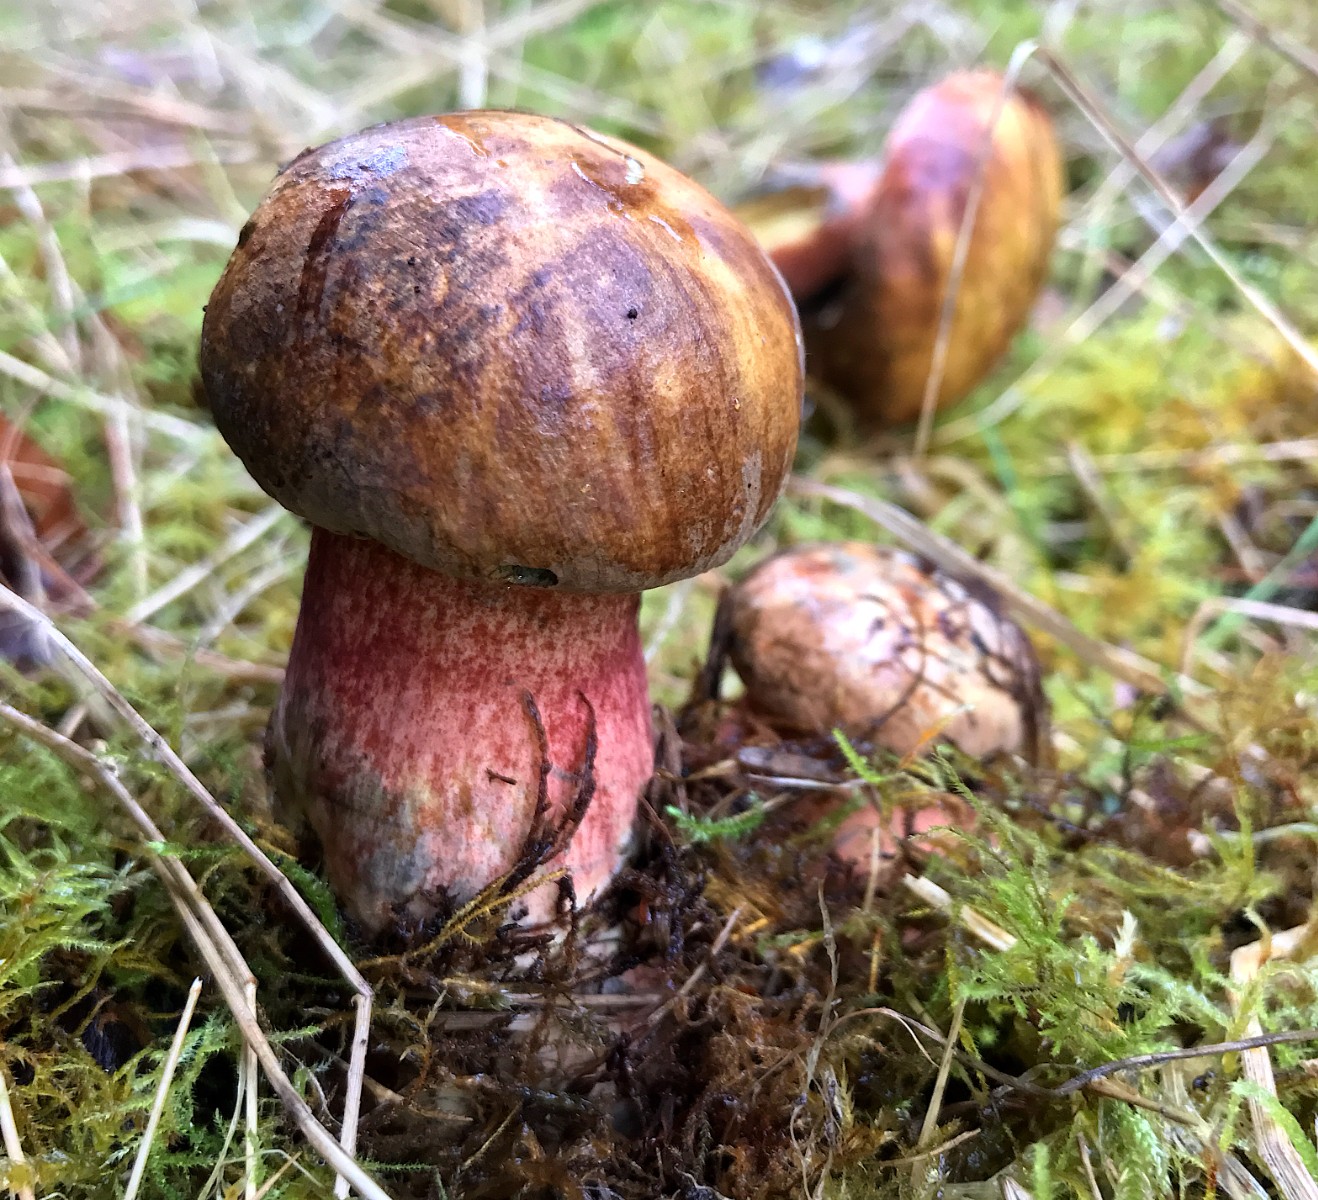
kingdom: Fungi
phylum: Basidiomycota
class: Agaricomycetes
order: Boletales
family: Boletaceae
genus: Neoboletus
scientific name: Neoboletus erythropus
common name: punktstokket indigorørhat
